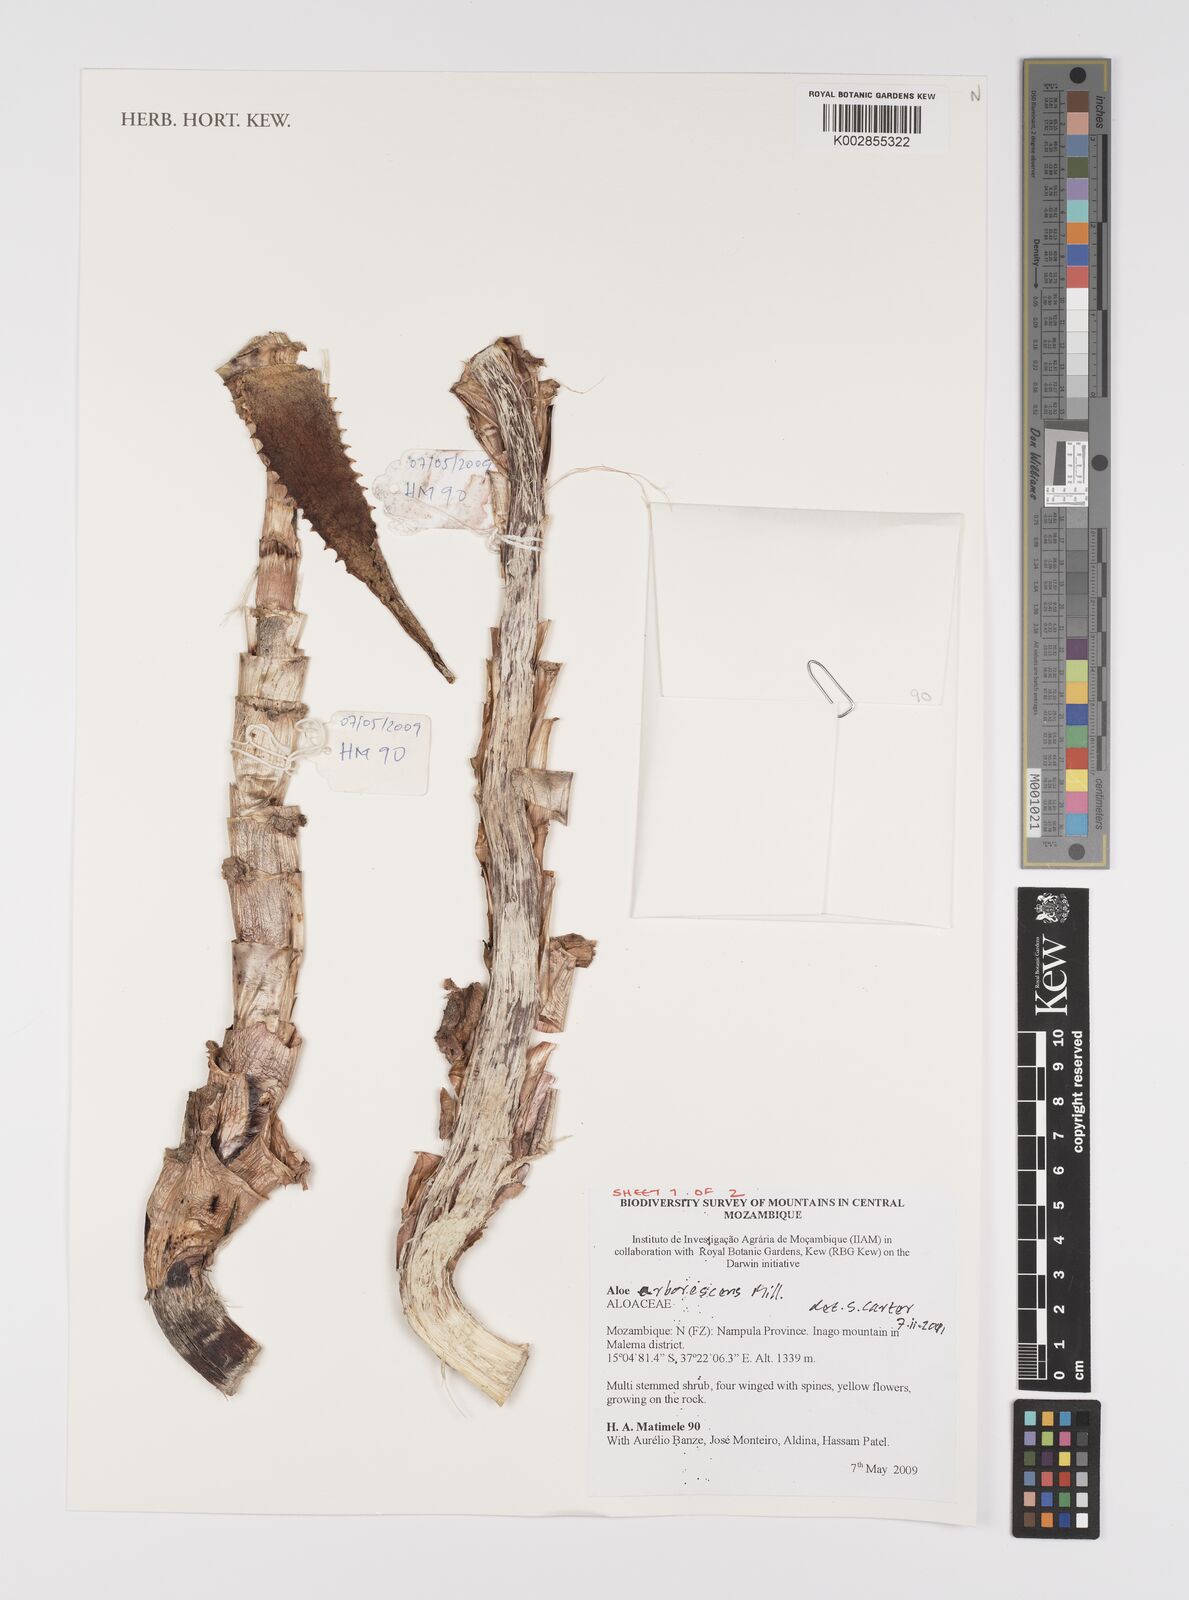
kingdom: Plantae
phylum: Tracheophyta
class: Liliopsida
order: Asparagales
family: Asphodelaceae
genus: Aloe
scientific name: Aloe
